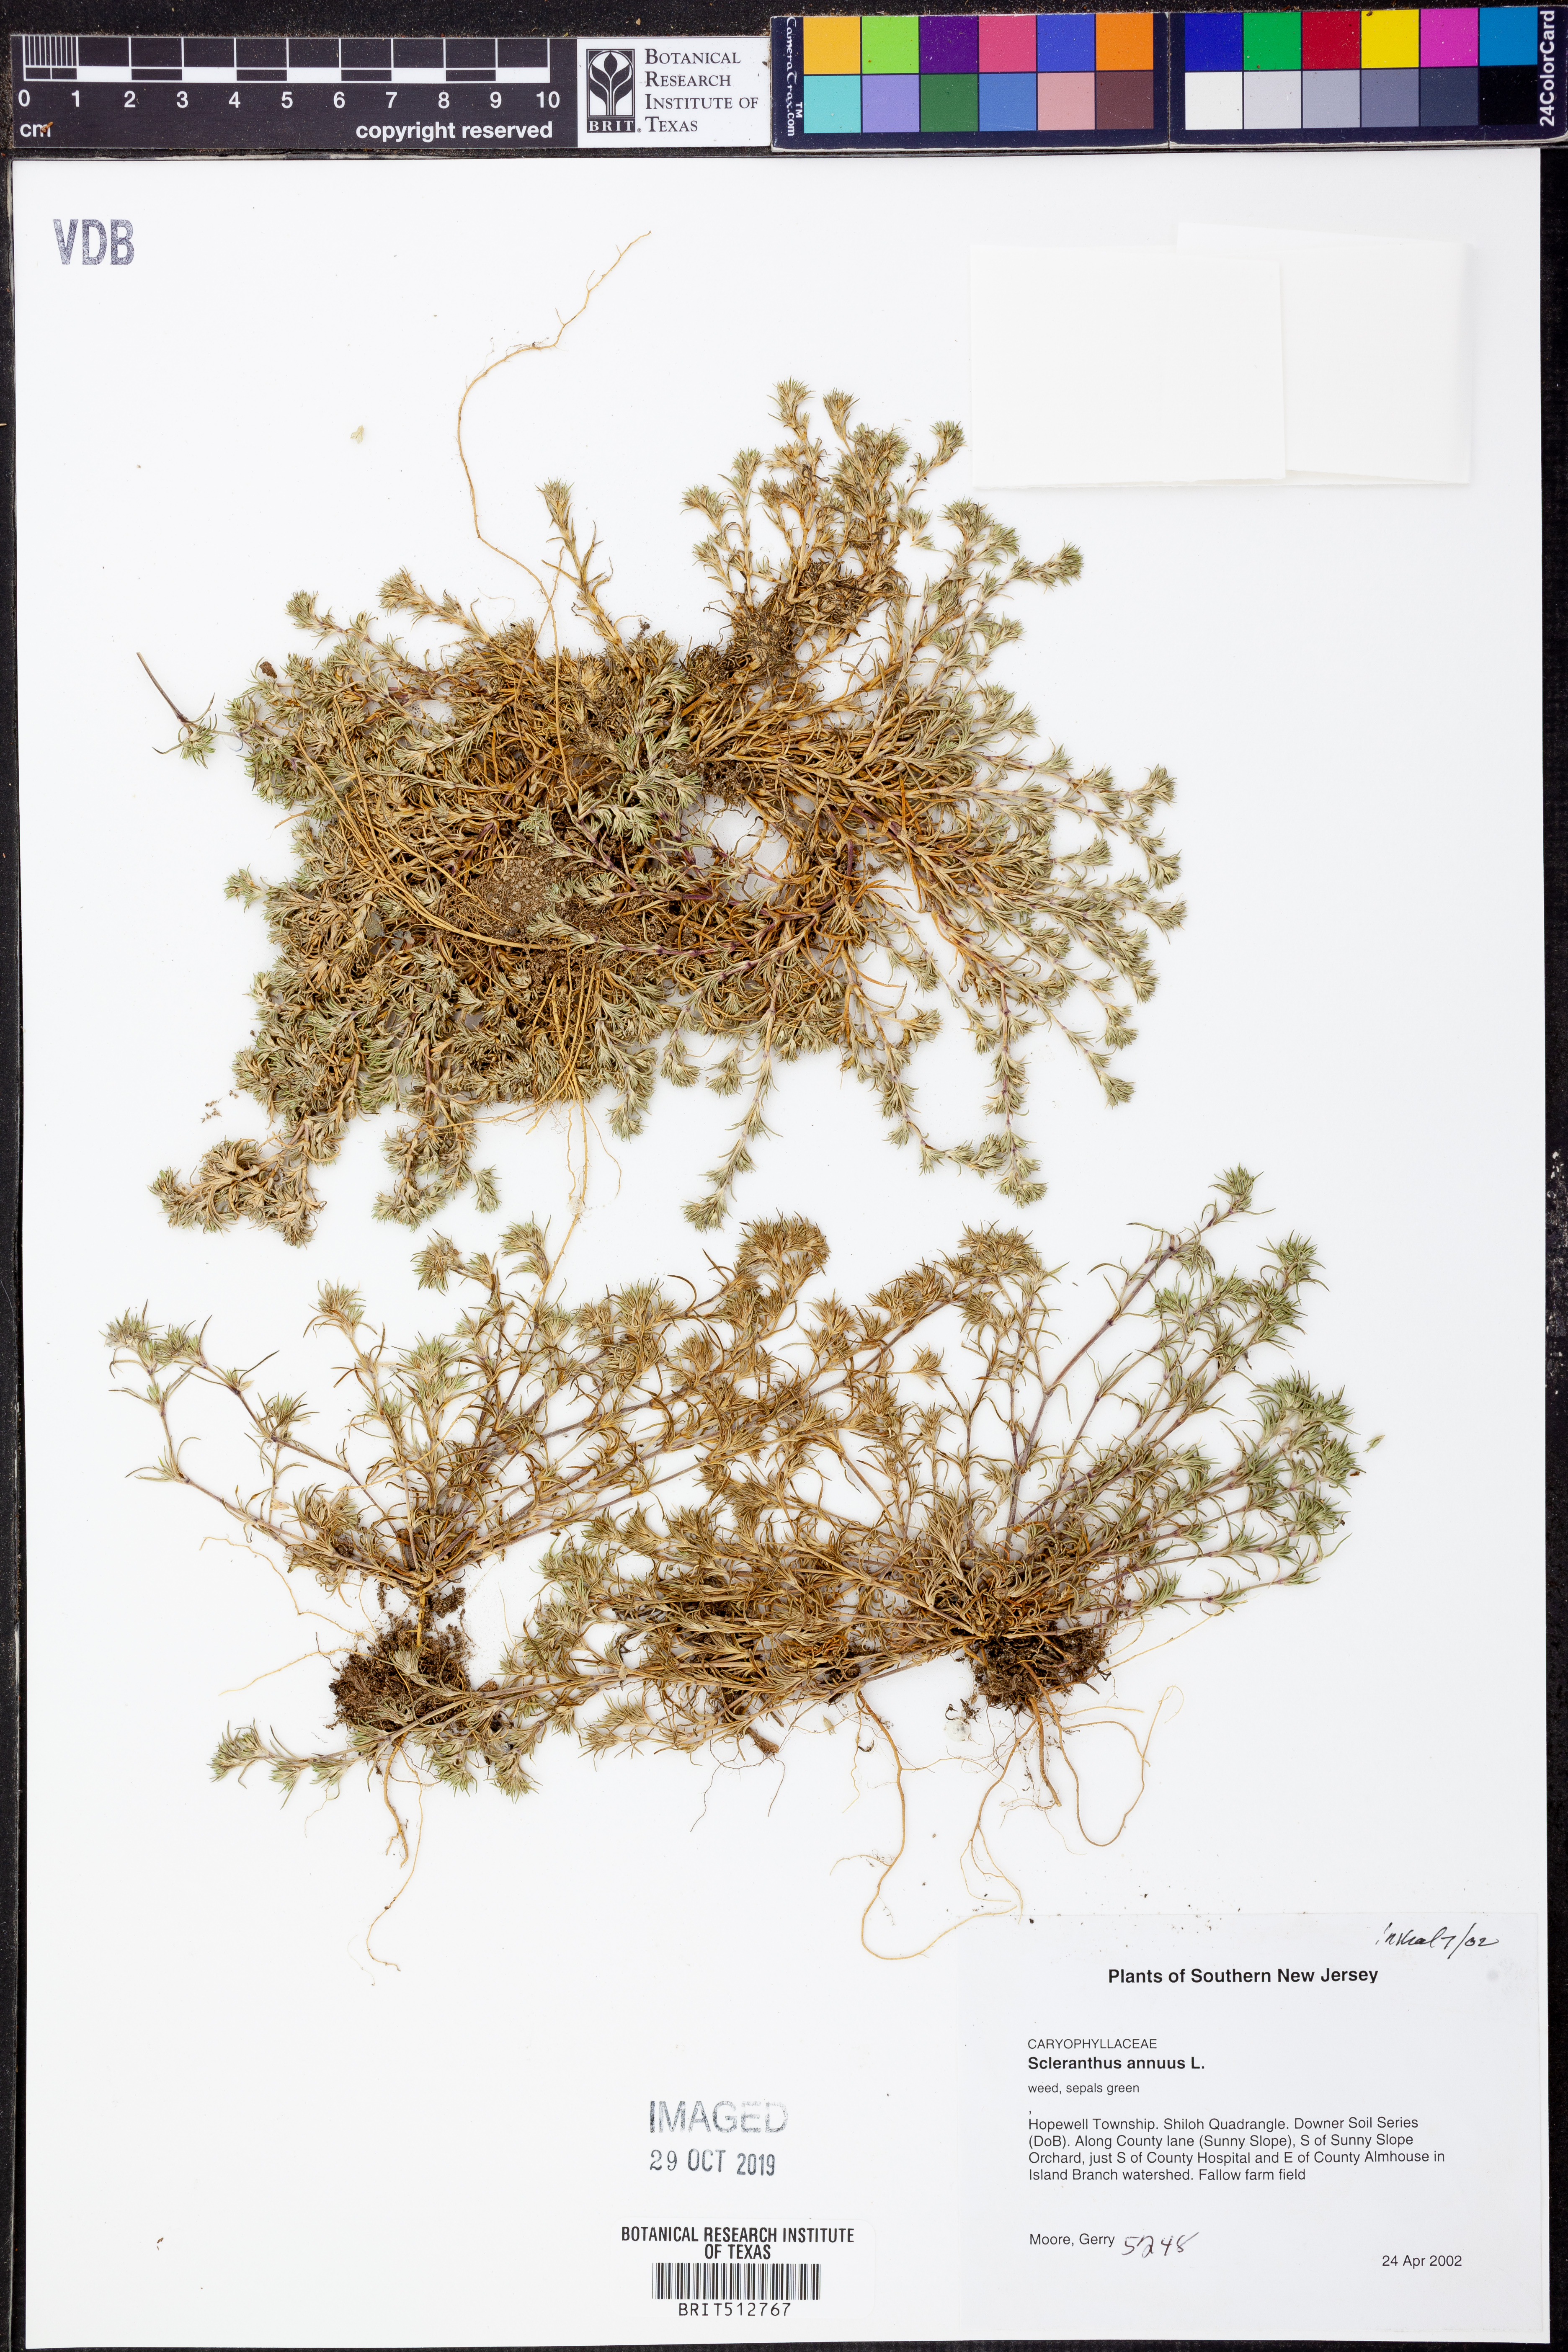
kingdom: Plantae
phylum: Tracheophyta
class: Magnoliopsida
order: Caryophyllales
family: Caryophyllaceae
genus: Scleranthus
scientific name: Scleranthus annuus
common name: Annual knawel
